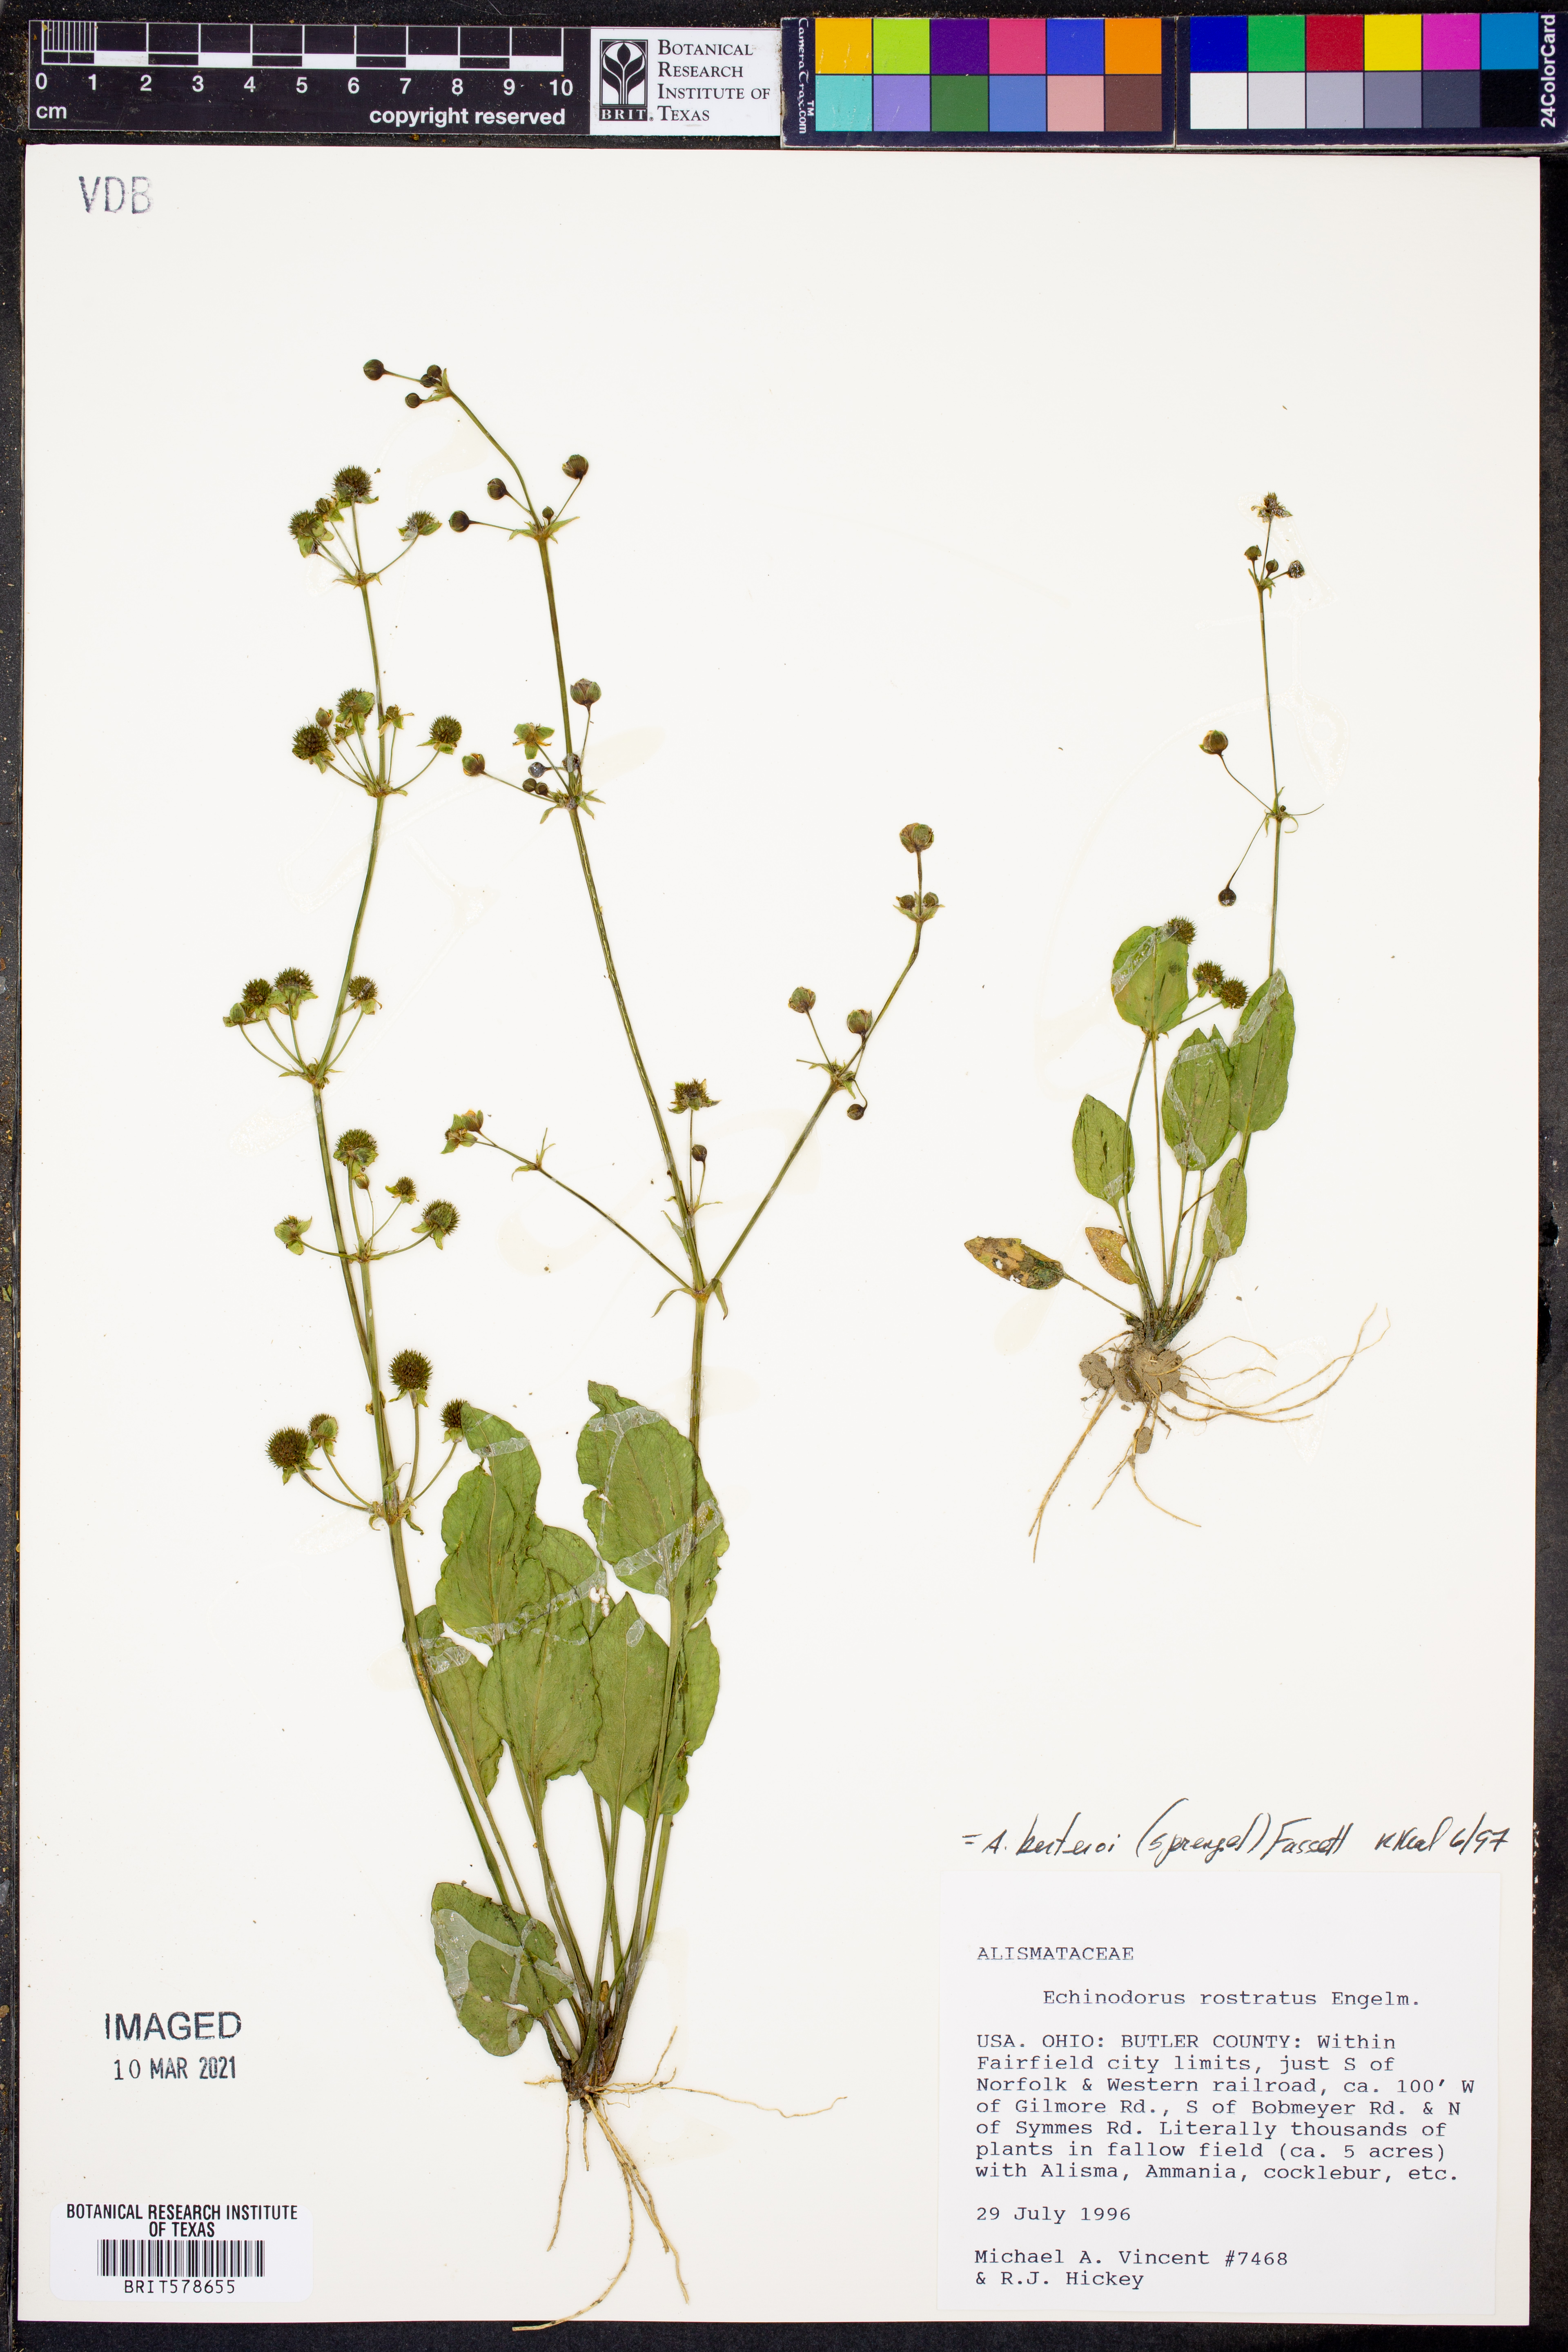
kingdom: Plantae
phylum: Tracheophyta
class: Magnoliopsida
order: Gentianales
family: Apocynaceae
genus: Angadenia
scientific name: Angadenia berteroi
